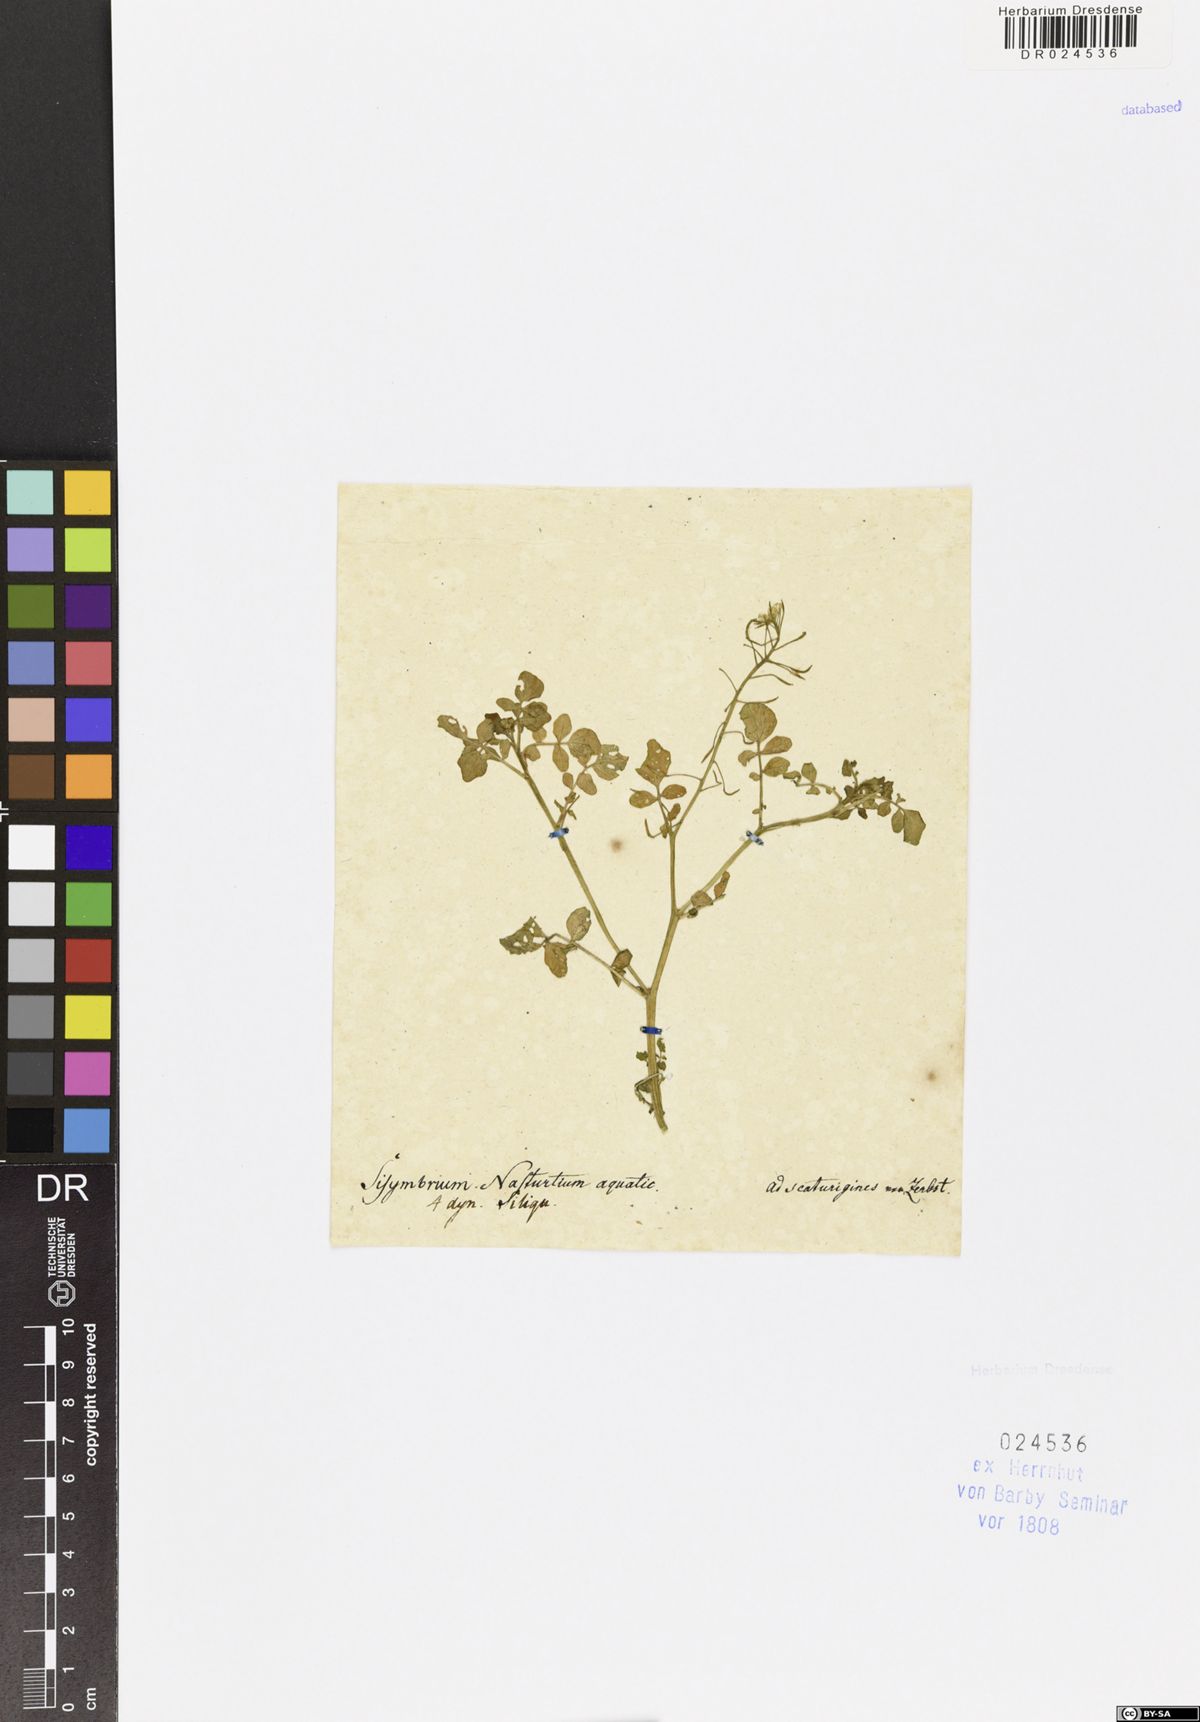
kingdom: Plantae
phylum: Tracheophyta
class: Magnoliopsida
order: Brassicales
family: Brassicaceae
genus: Nasturtium
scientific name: Nasturtium officinale
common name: Watercress
